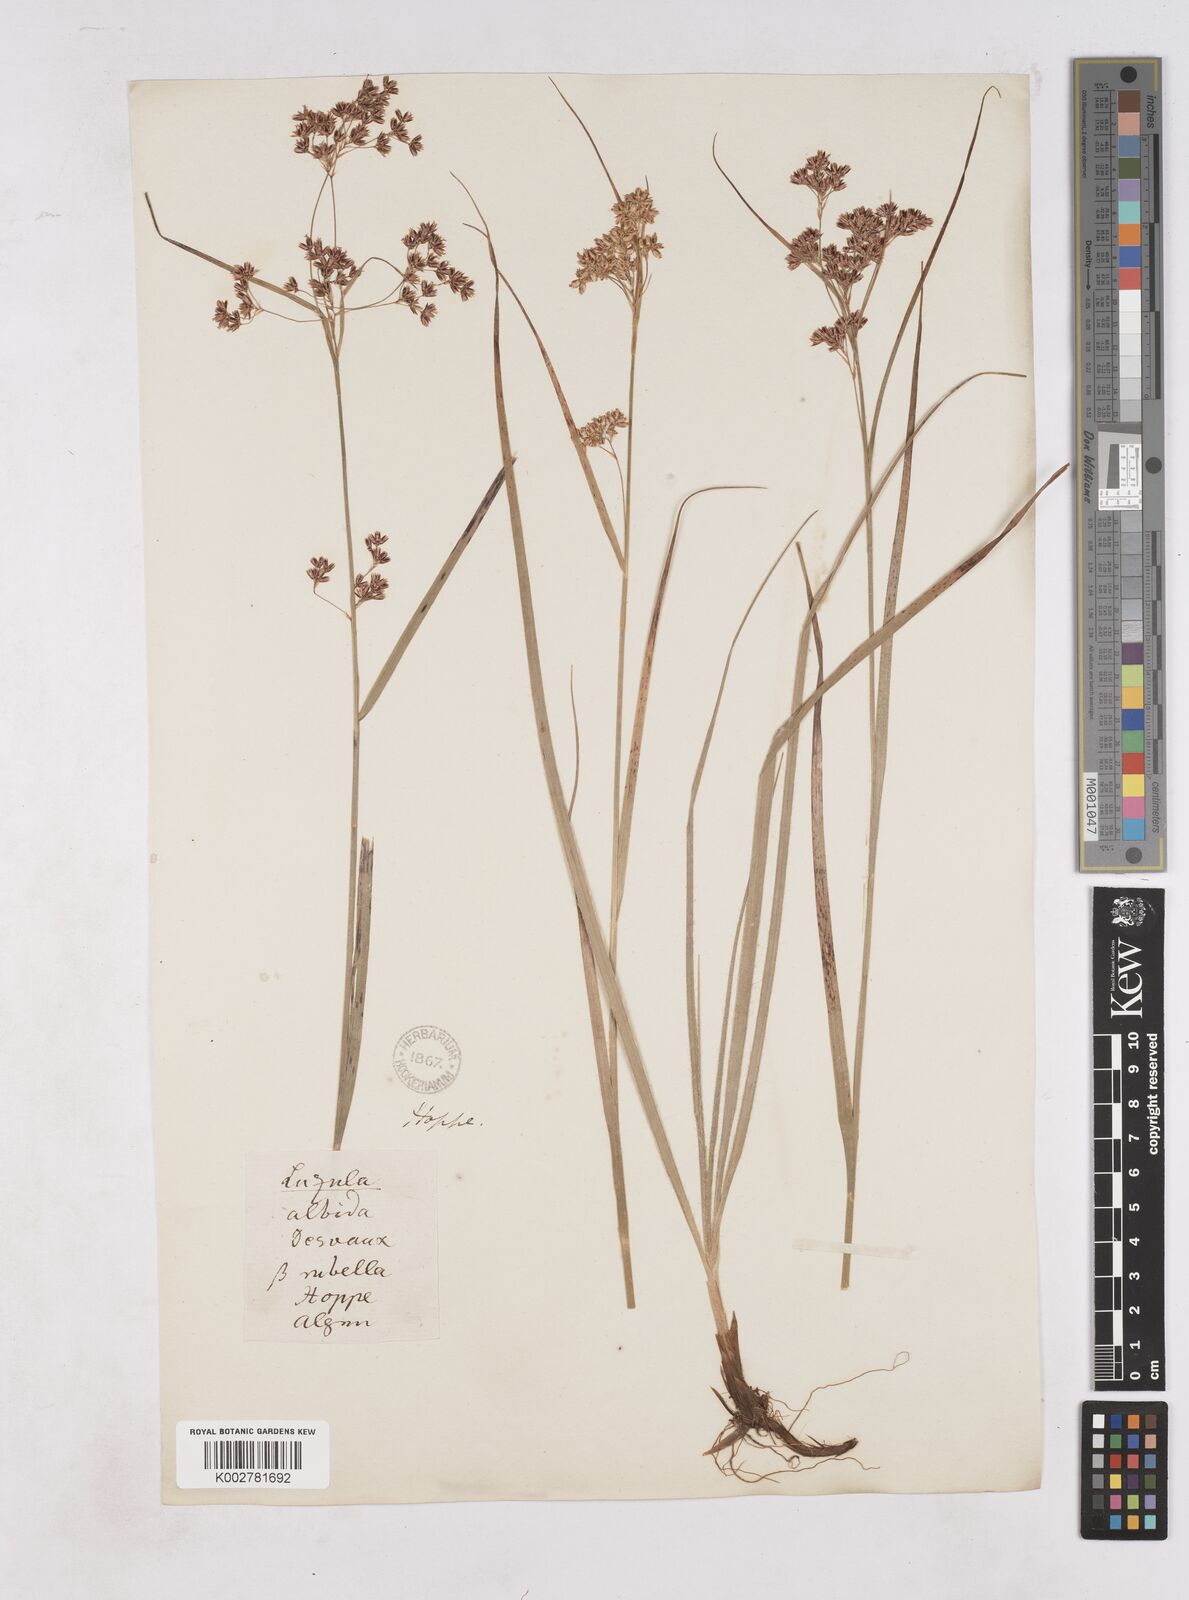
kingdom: Plantae
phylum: Tracheophyta
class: Liliopsida
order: Poales
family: Juncaceae
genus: Luzula
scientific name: Luzula luzuloides
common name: White wood-rush
